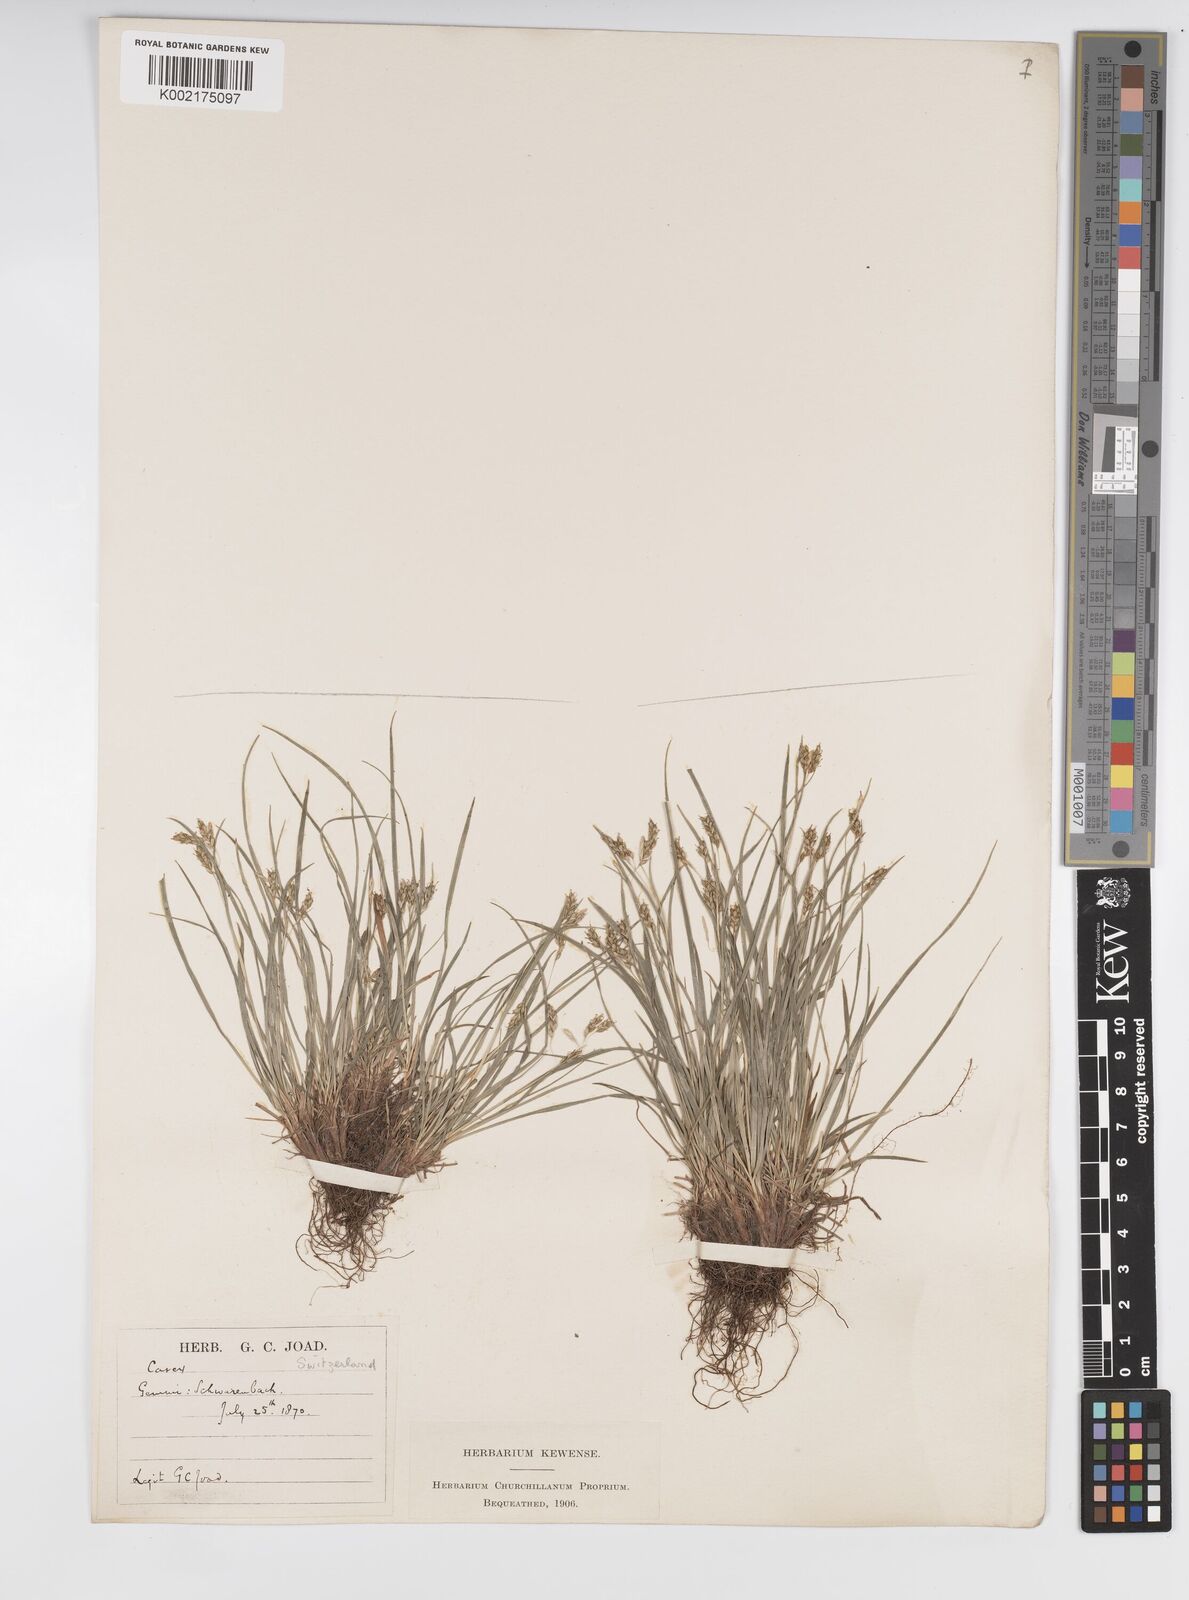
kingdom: Plantae
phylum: Tracheophyta
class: Liliopsida
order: Poales
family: Cyperaceae
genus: Carex
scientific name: Carex capillaris
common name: Hair sedge
